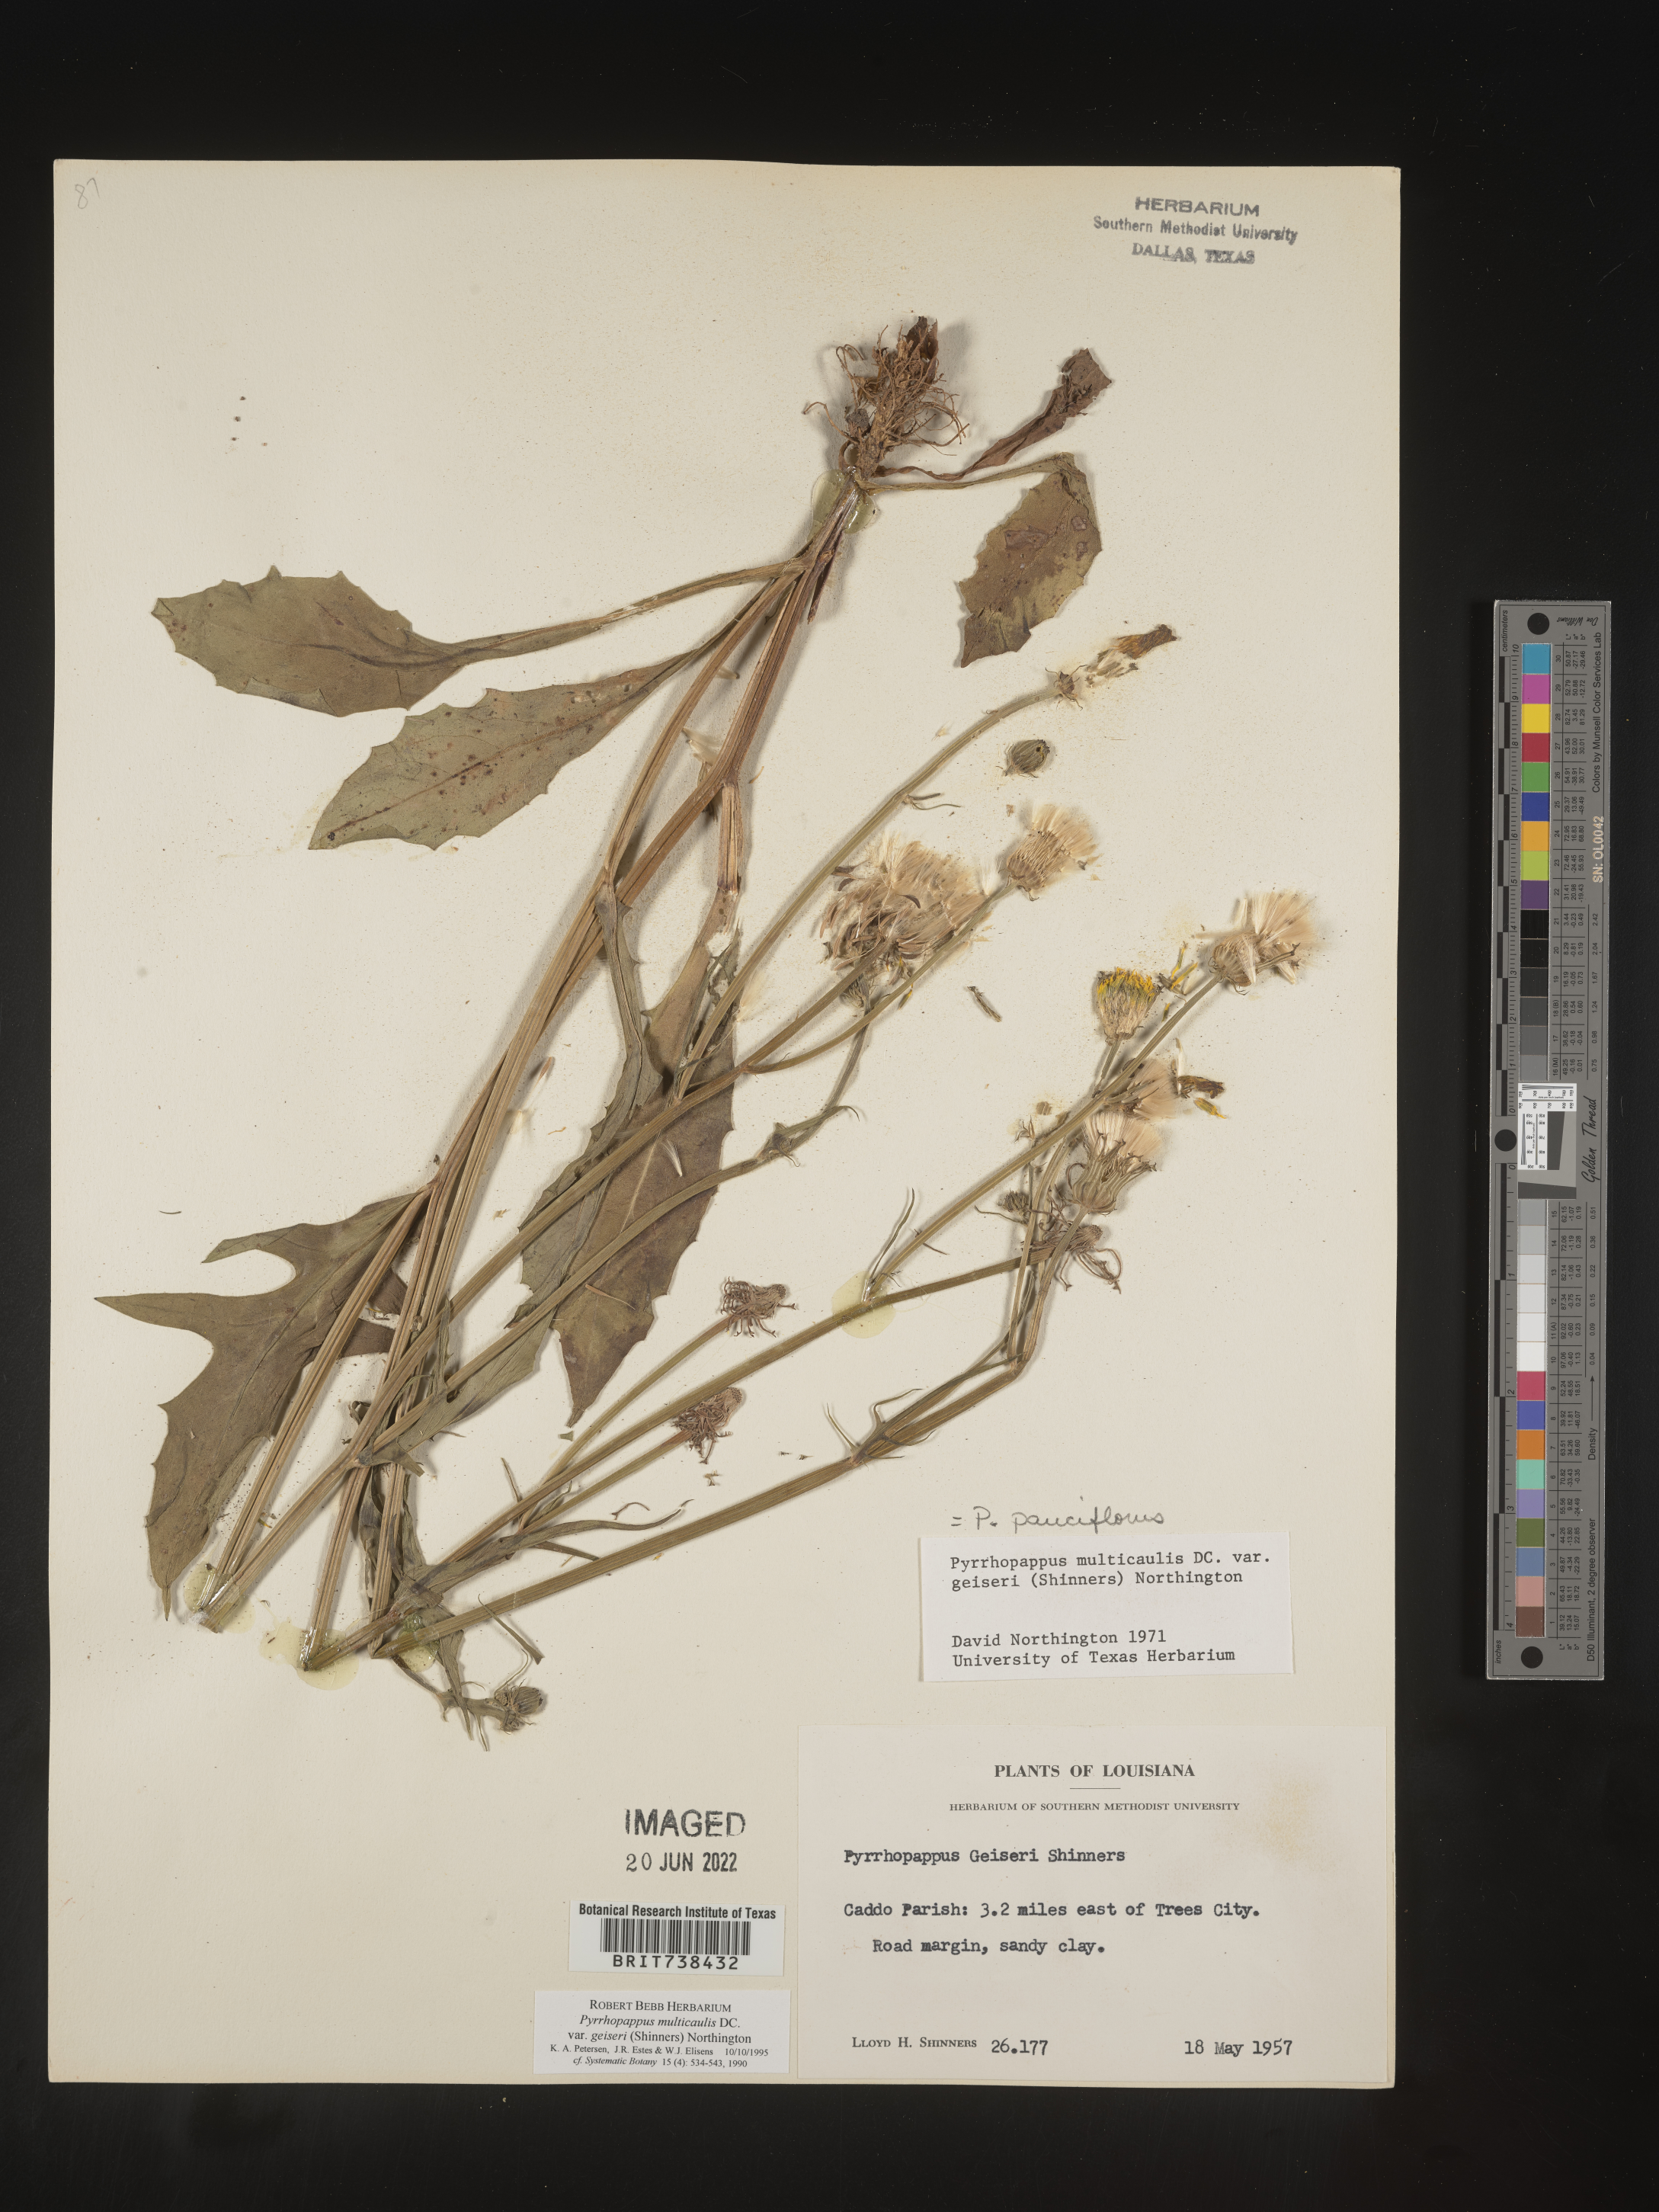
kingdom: Plantae
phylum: Tracheophyta
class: Magnoliopsida
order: Asterales
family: Asteraceae
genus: Pyrrhopappus
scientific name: Pyrrhopappus pauciflorus
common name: Texas false dandelion
